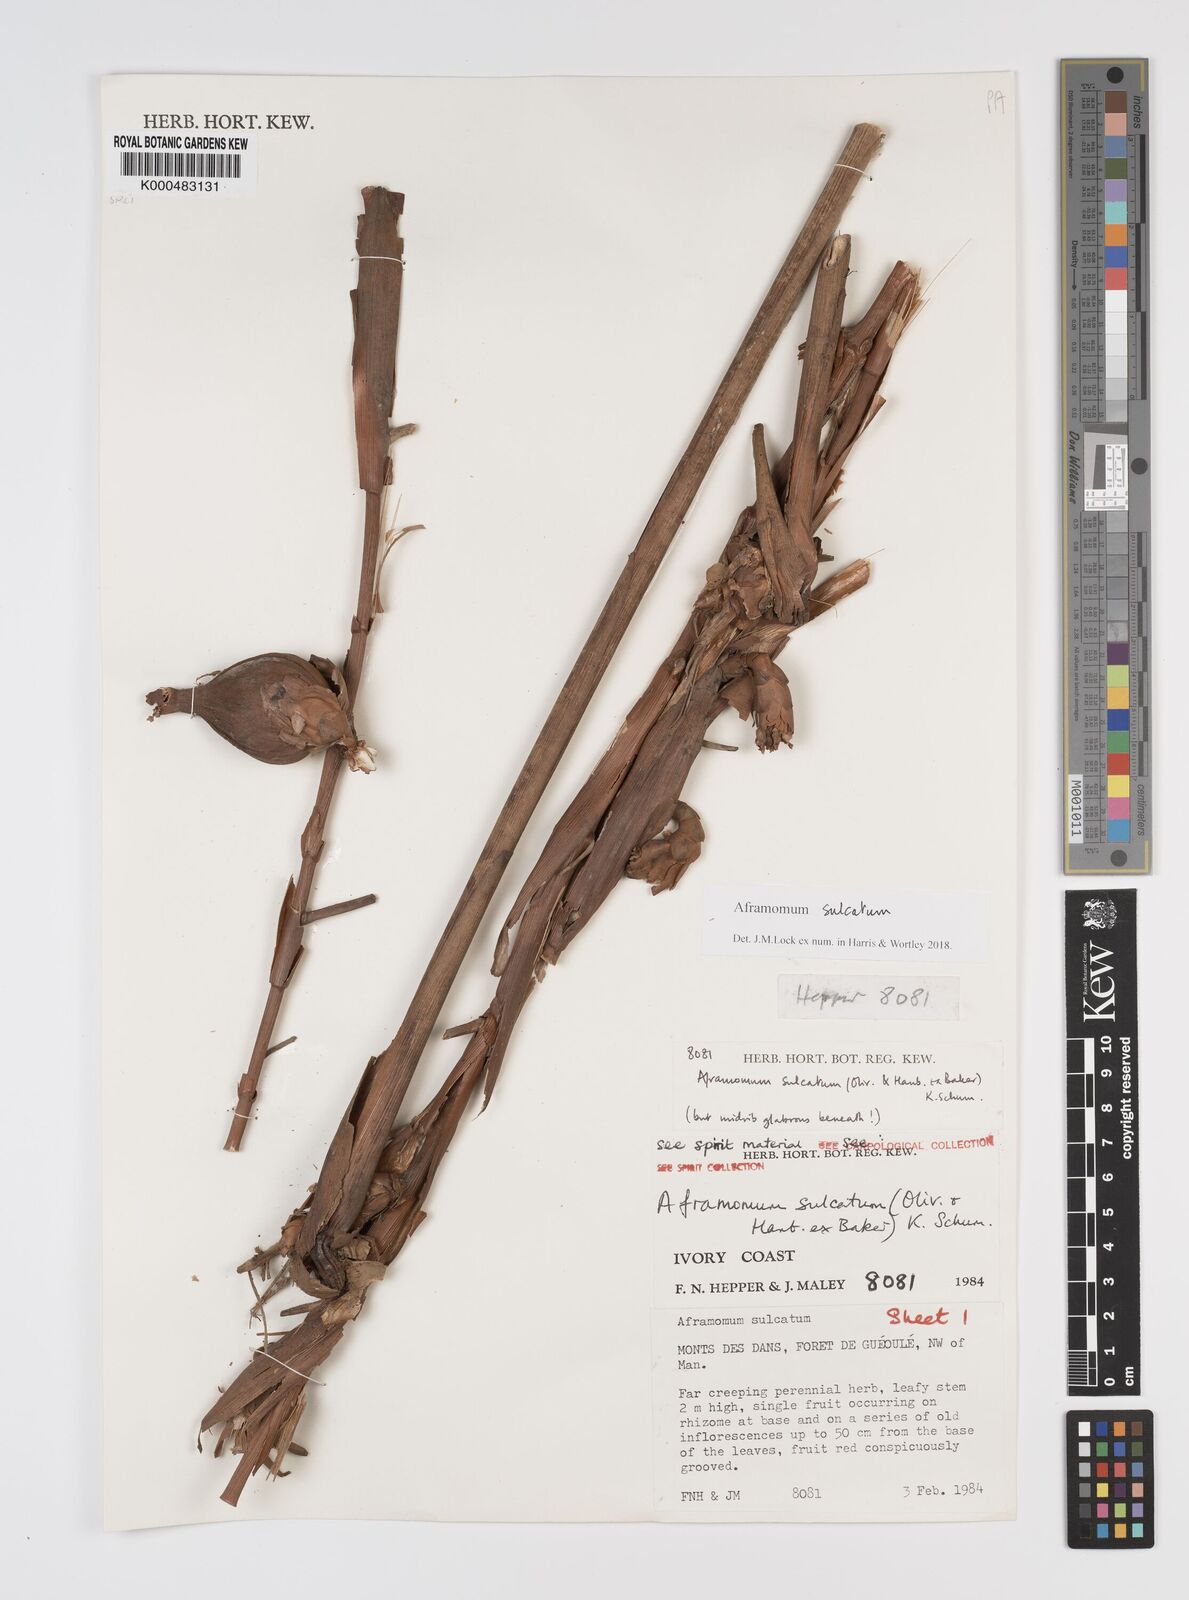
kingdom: Plantae
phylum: Tracheophyta
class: Liliopsida
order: Zingiberales
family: Zingiberaceae
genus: Aframomum
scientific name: Aframomum sulcatum
